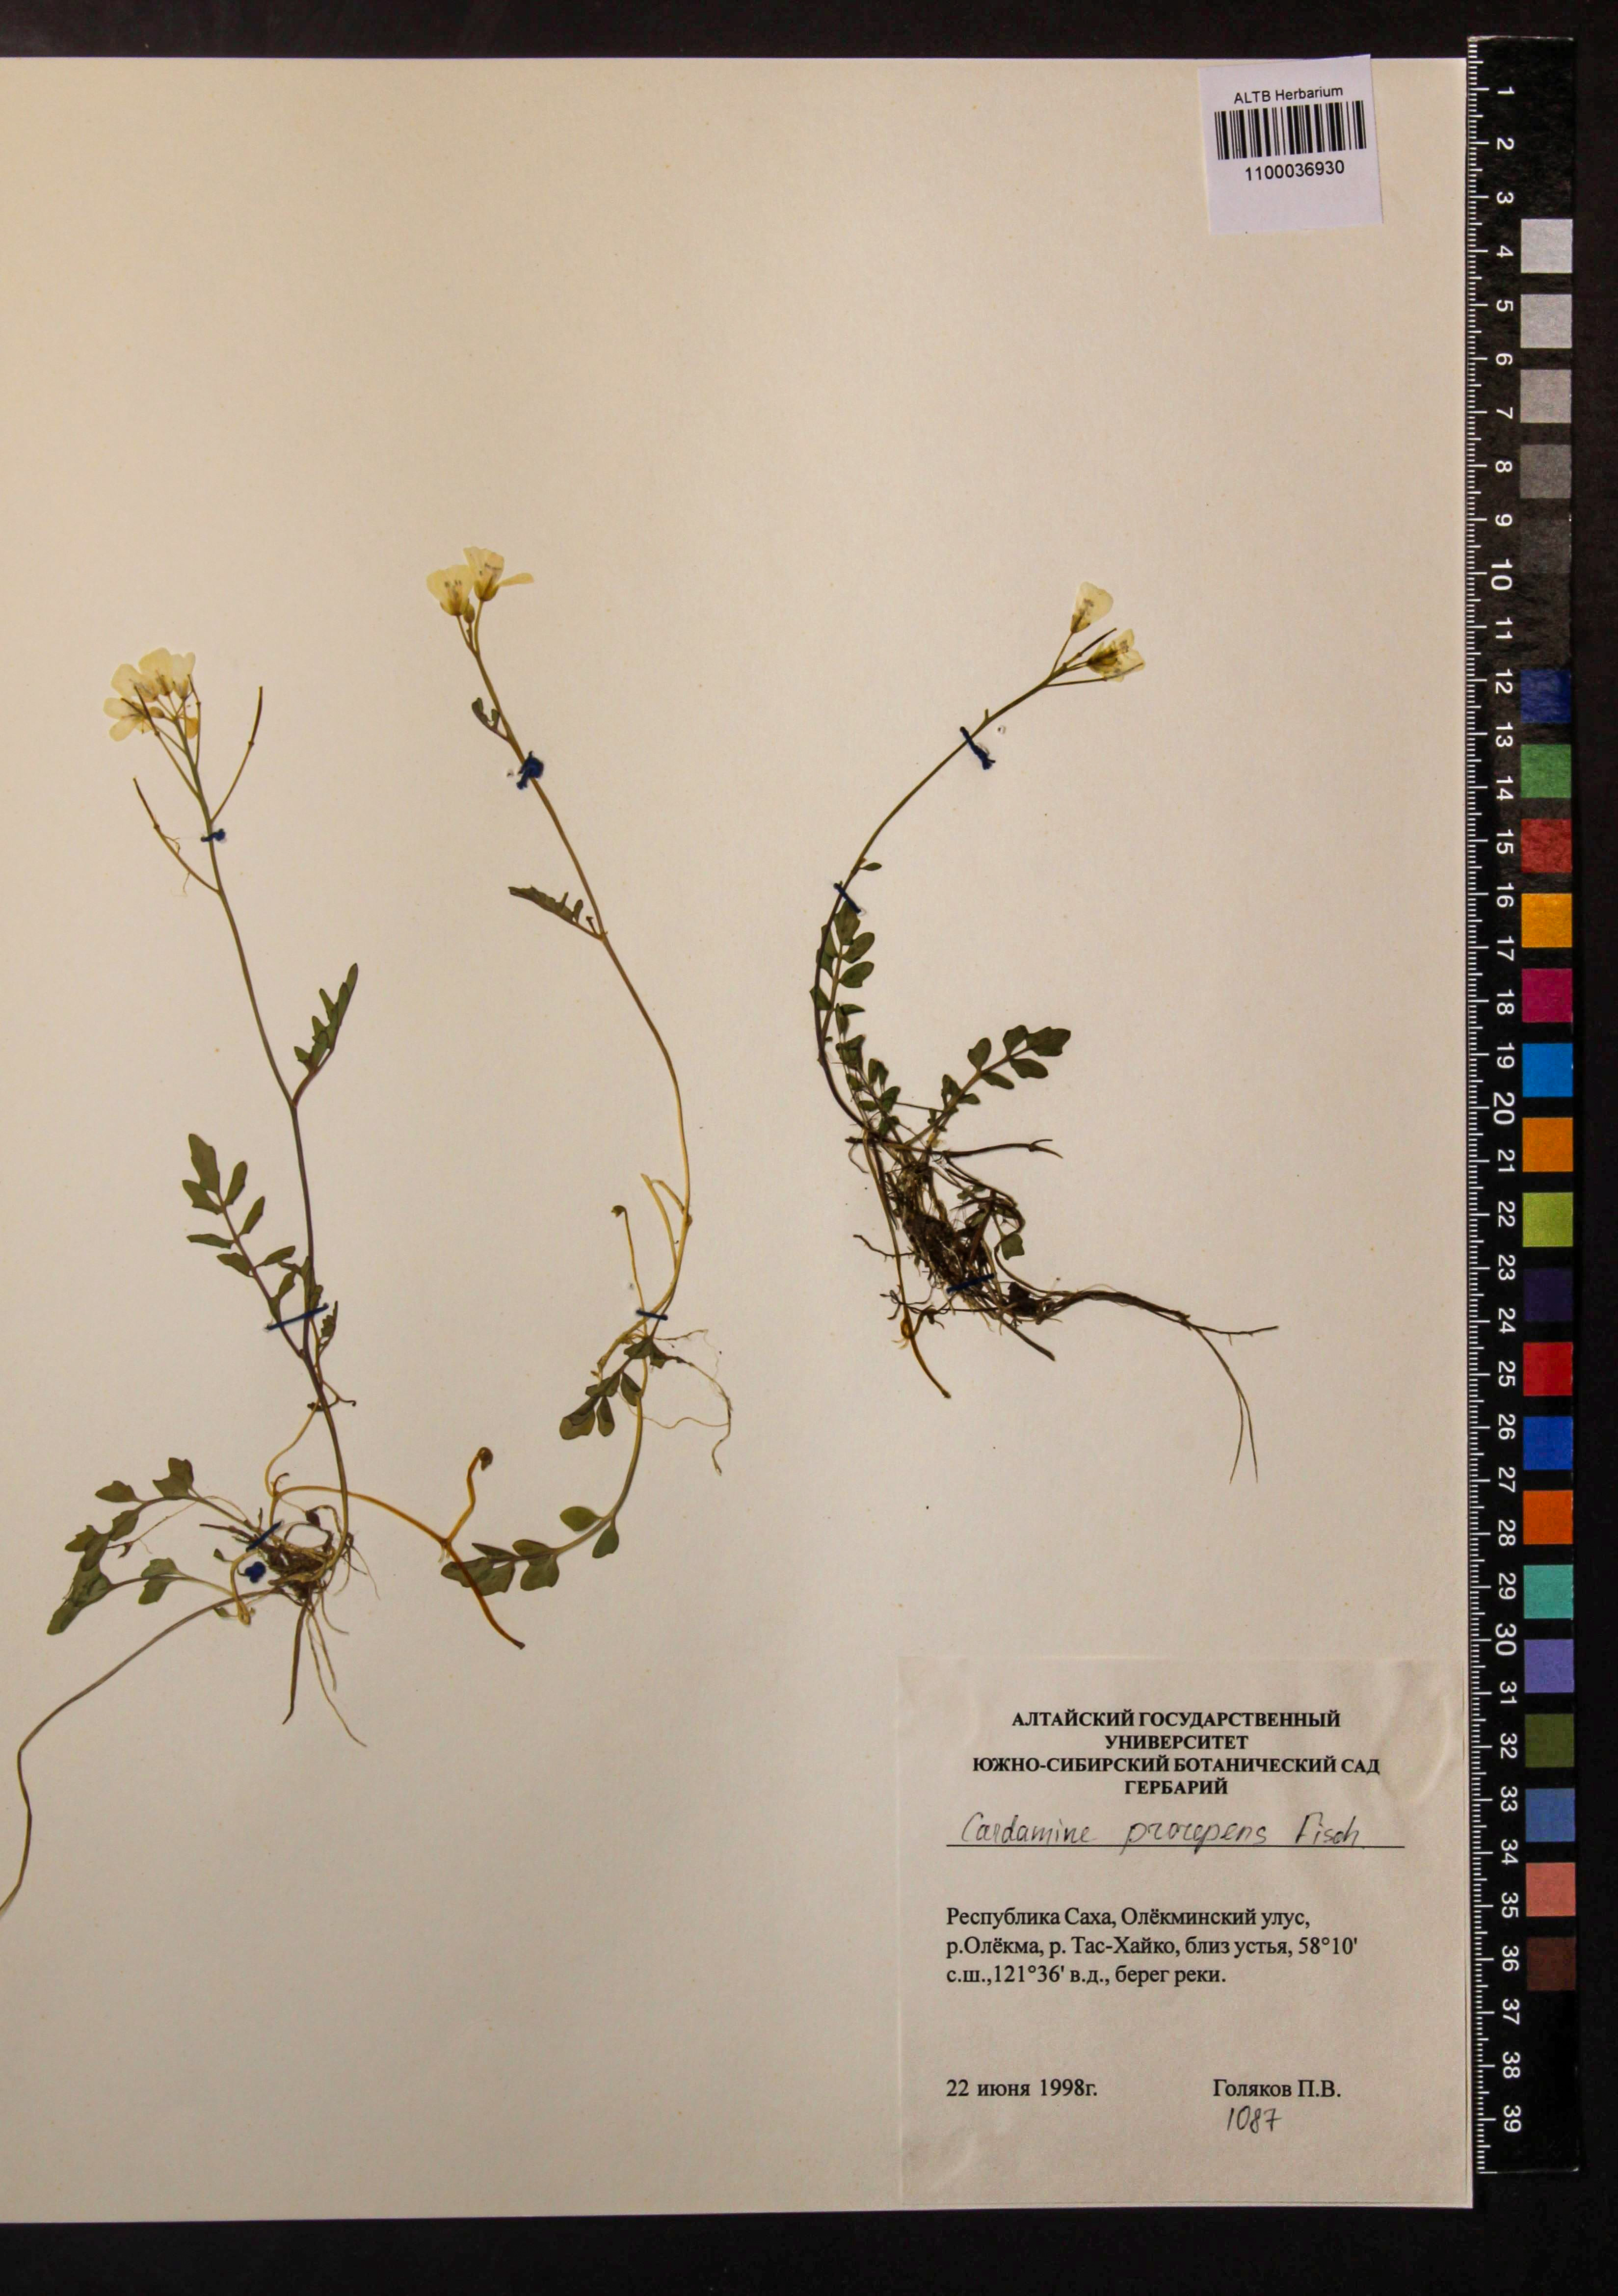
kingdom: Plantae
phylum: Tracheophyta
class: Magnoliopsida
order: Brassicales
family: Brassicaceae
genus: Cardamine
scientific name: Cardamine prorepens
